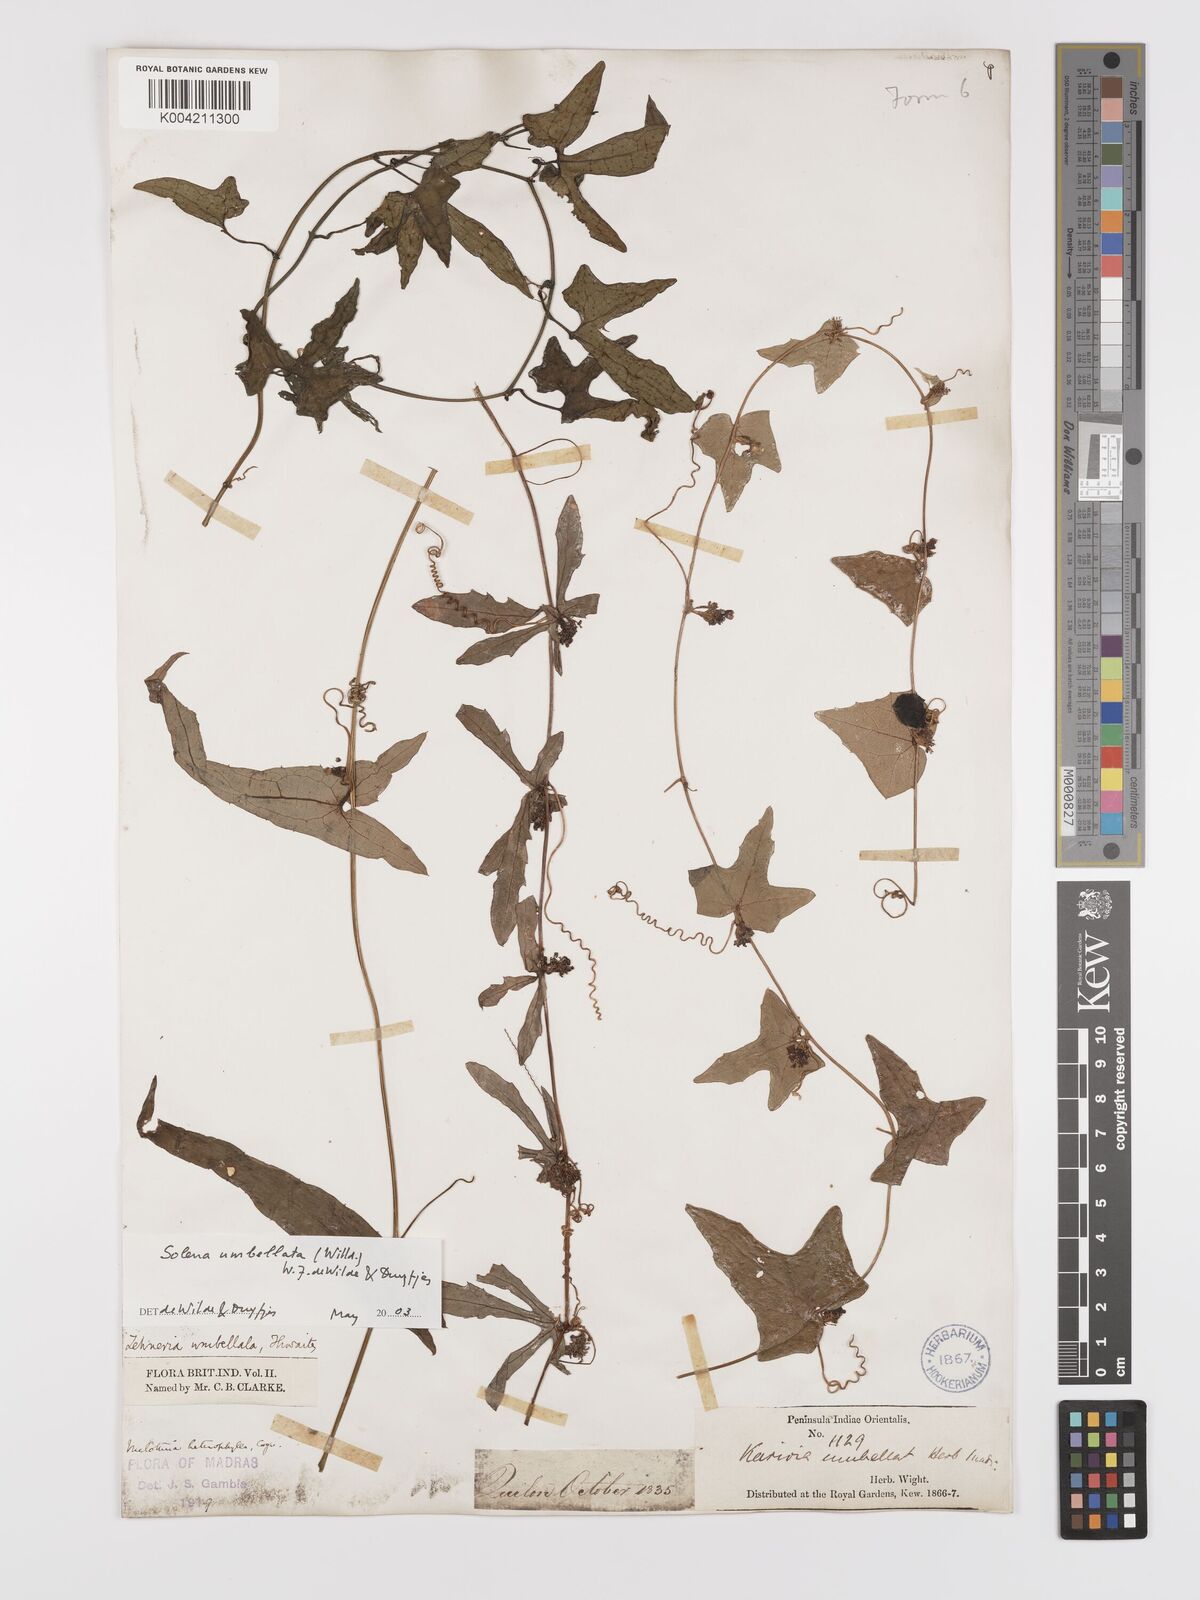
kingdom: Plantae
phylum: Tracheophyta
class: Magnoliopsida
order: Cucurbitales
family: Cucurbitaceae
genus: Solena
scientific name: Solena amplexicaulis
